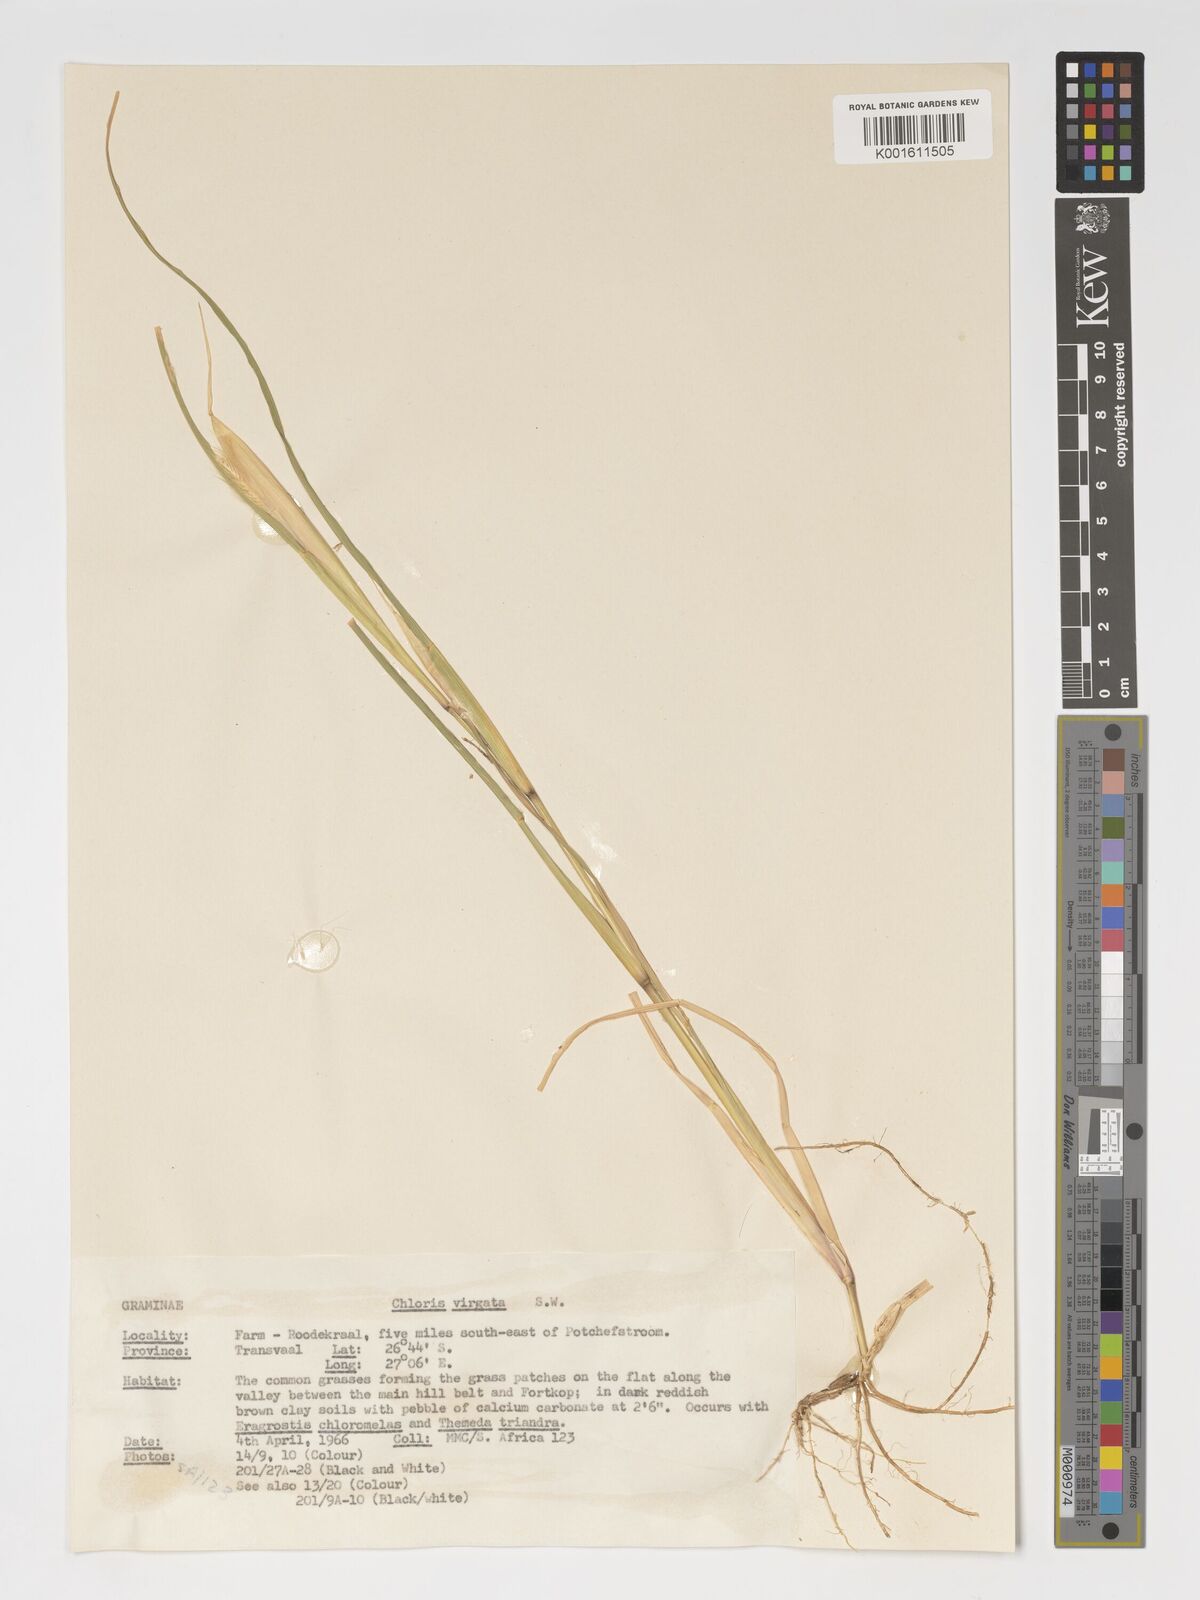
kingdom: Plantae
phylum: Tracheophyta
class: Liliopsida
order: Poales
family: Poaceae
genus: Chloris
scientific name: Chloris virgata
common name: Feathery rhodes-grass
